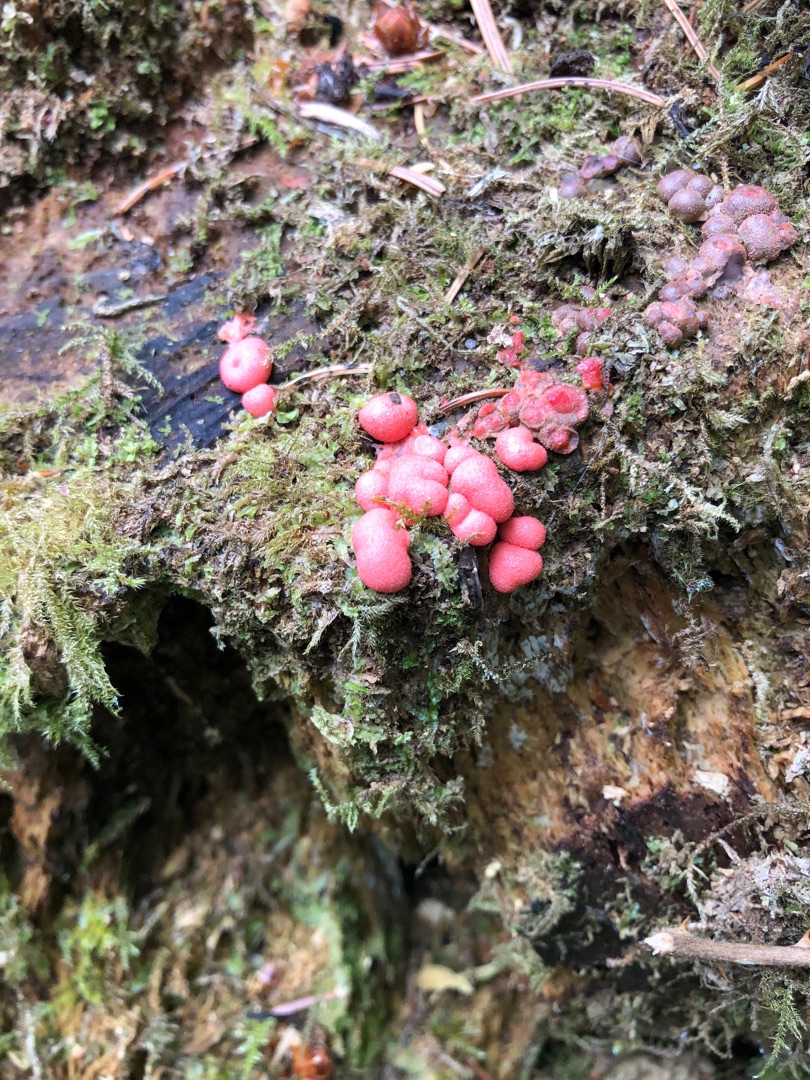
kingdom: Protozoa
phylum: Mycetozoa
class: Myxomycetes
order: Cribrariales
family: Tubiferaceae
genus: Lycogala
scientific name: Lycogala epidendrum
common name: Almindelig rødært
